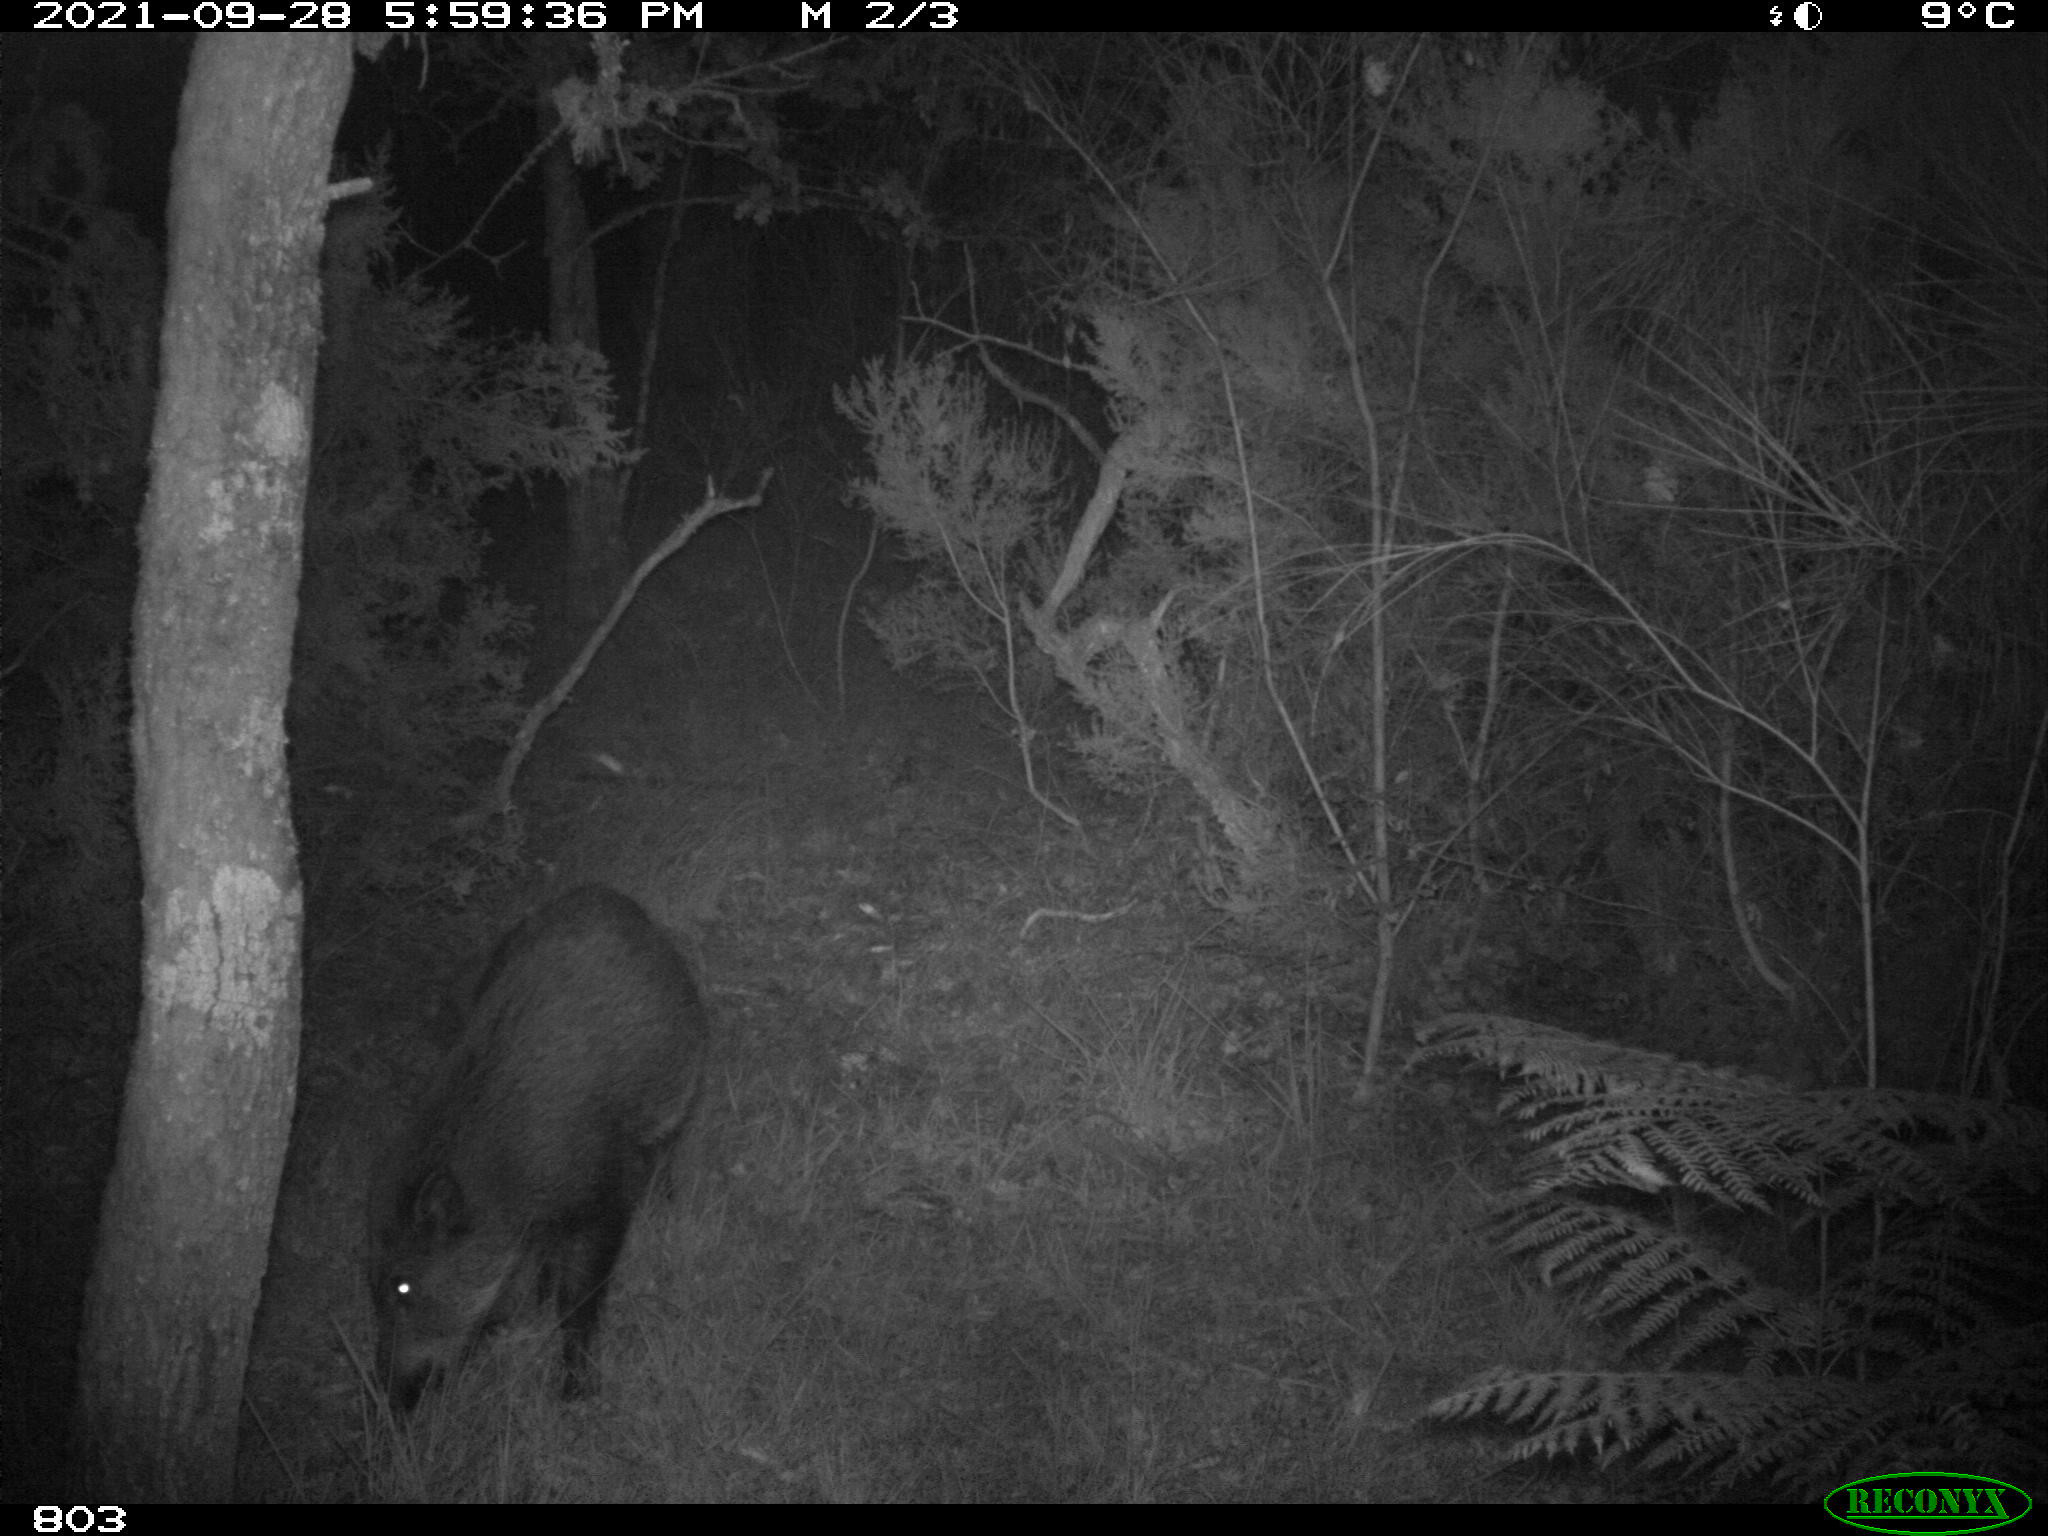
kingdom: Animalia
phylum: Chordata
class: Mammalia
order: Artiodactyla
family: Suidae
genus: Sus
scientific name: Sus scrofa
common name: Wild boar
